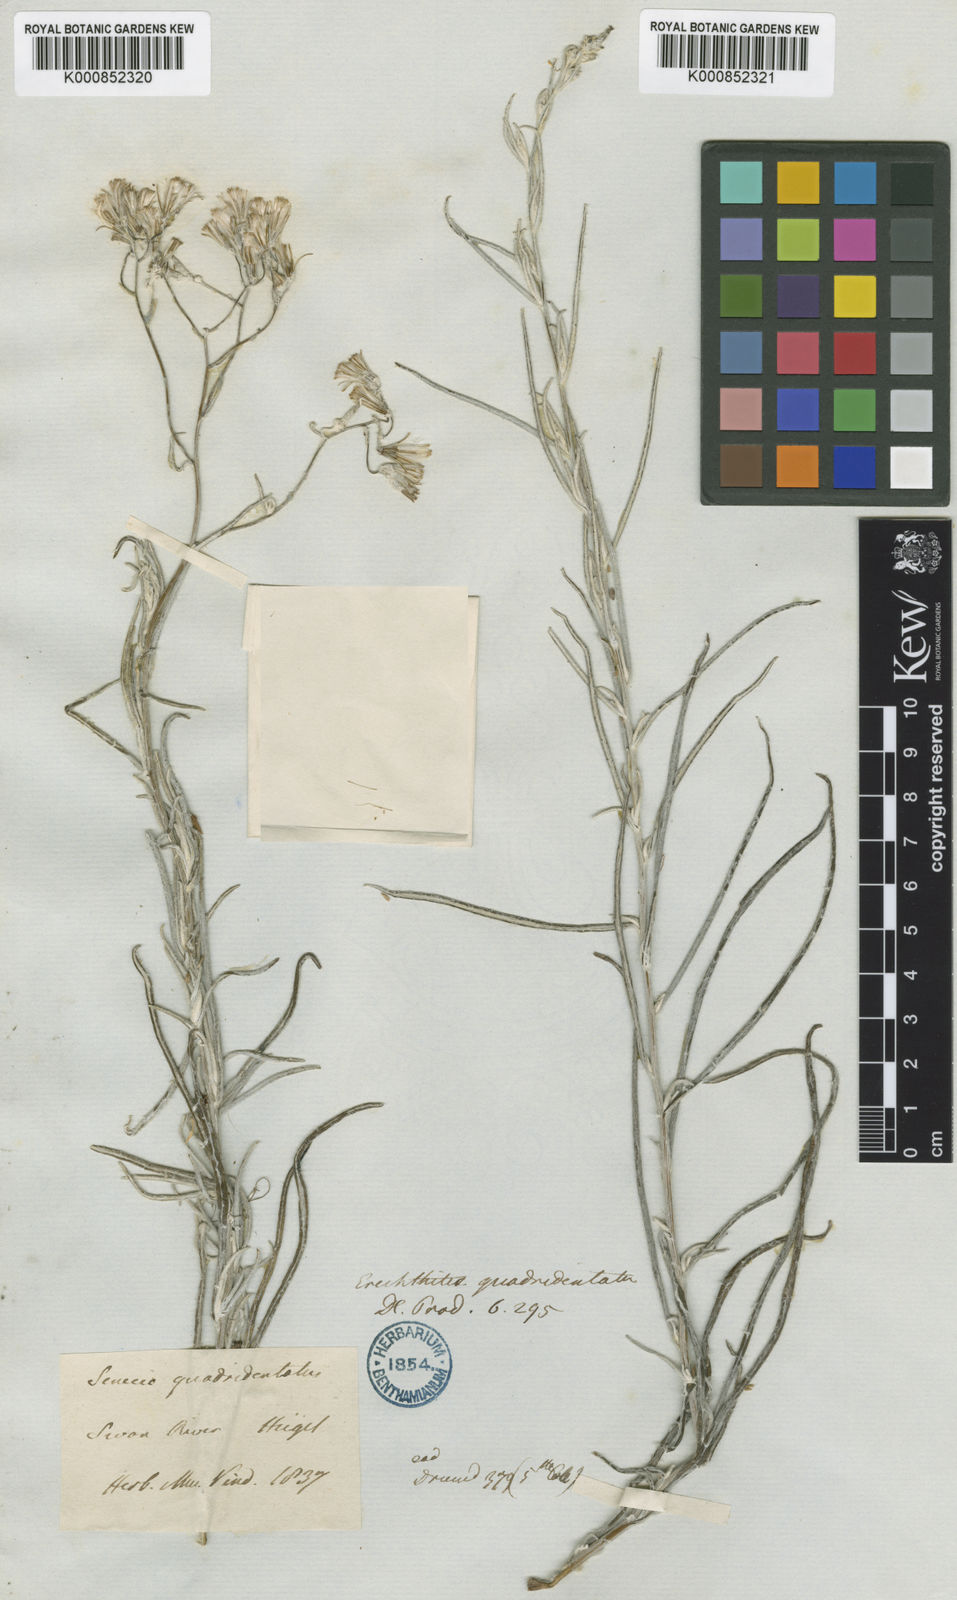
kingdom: Plantae
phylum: Tracheophyta
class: Magnoliopsida
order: Asterales
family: Asteraceae
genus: Senecio
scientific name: Senecio quadridentatus
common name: Cotton fireweed
